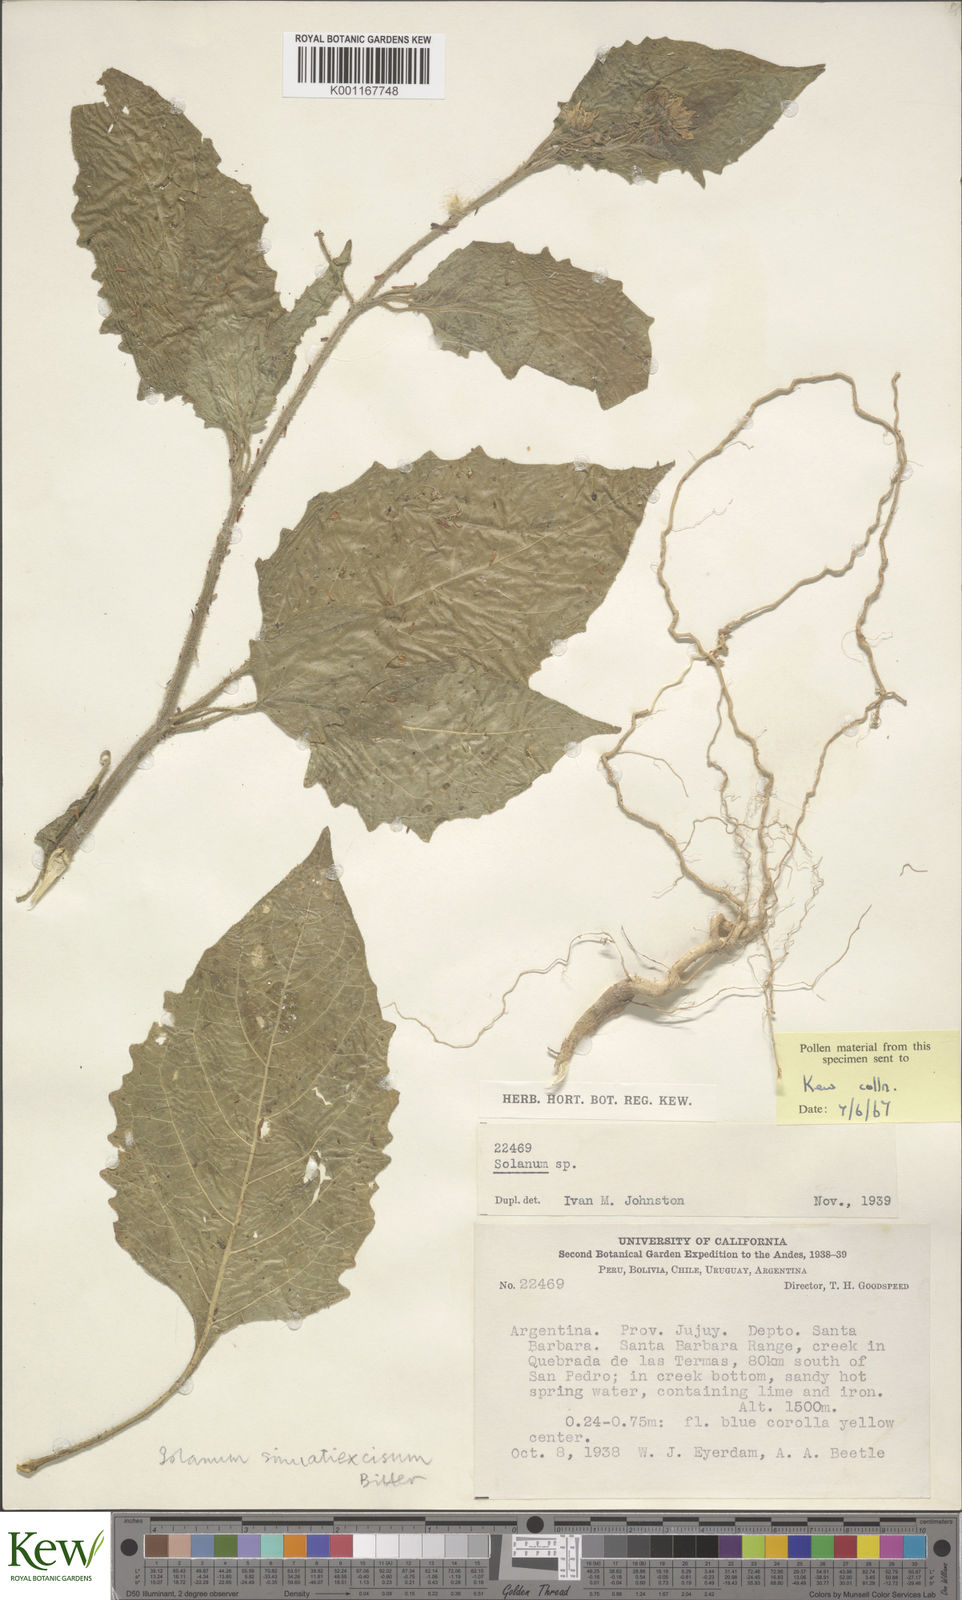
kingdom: Plantae
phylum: Tracheophyta
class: Magnoliopsida
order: Solanales
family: Solanaceae
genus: Solanum
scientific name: Solanum sinuatiexcisum
